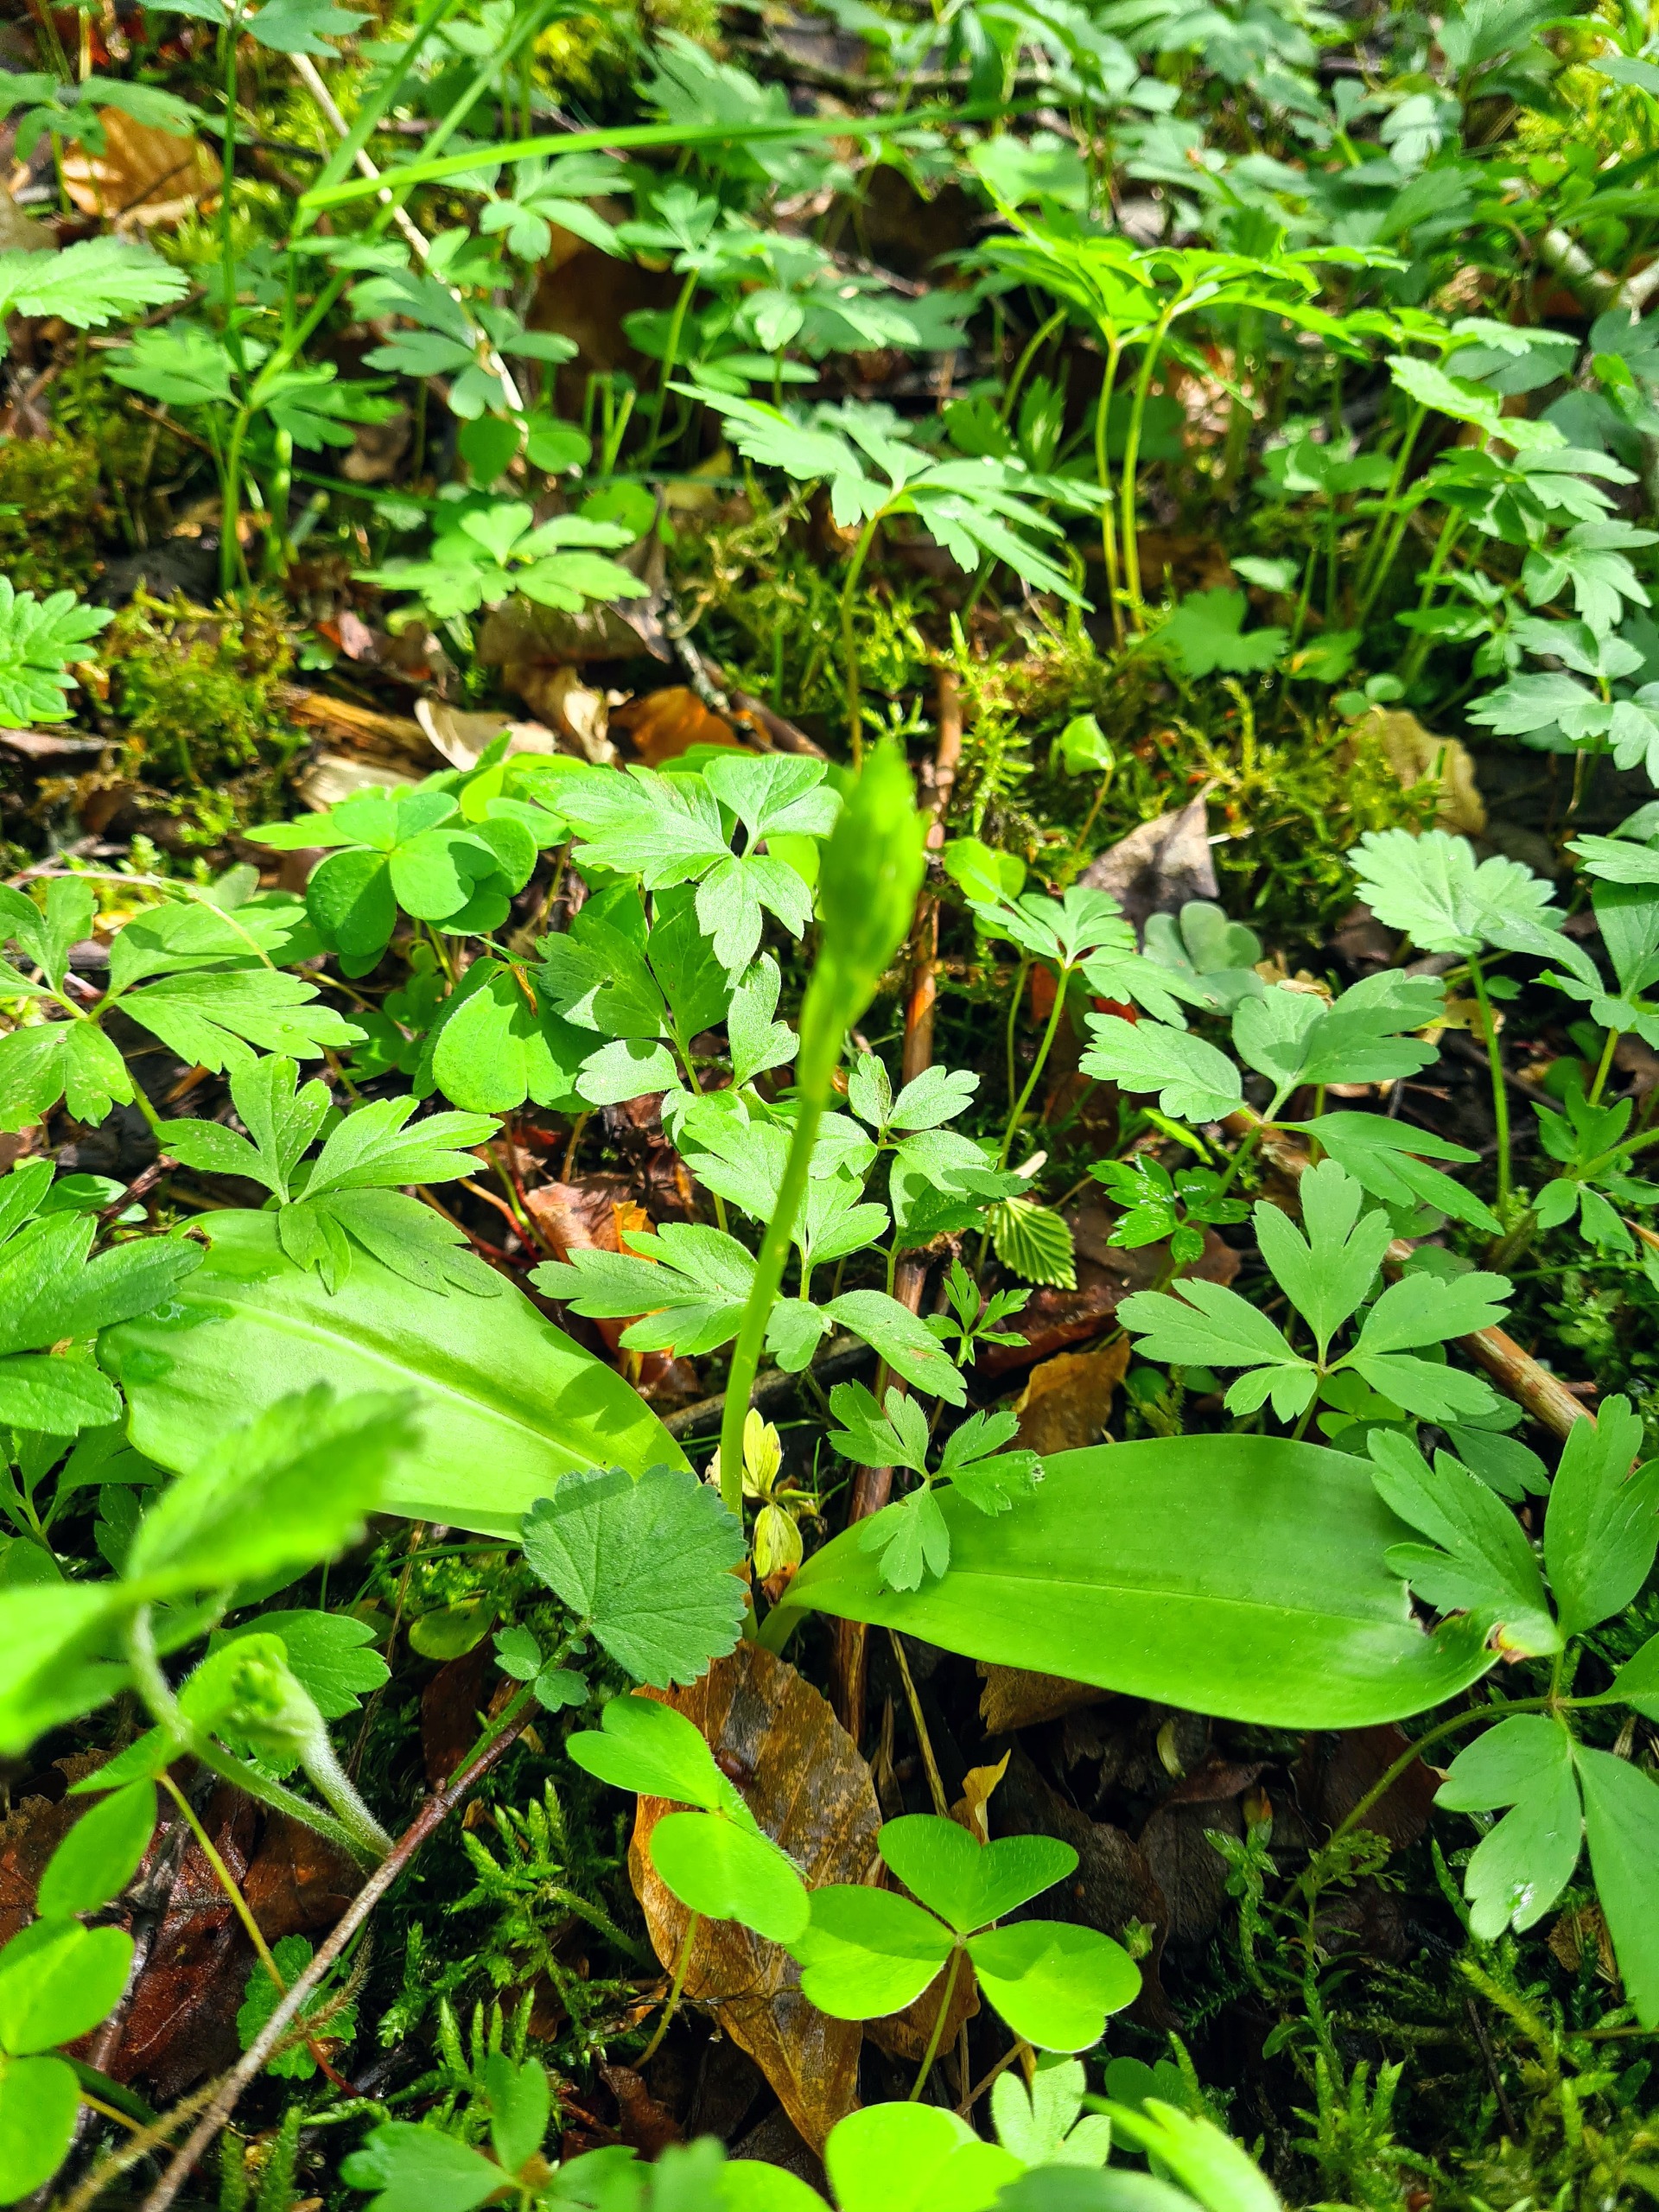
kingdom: Plantae
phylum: Tracheophyta
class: Liliopsida
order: Asparagales
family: Orchidaceae
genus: Platanthera
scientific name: Platanthera chlorantha
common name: Skov-gøgelilje
